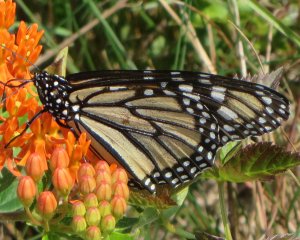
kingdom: Animalia
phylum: Arthropoda
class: Insecta
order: Lepidoptera
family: Nymphalidae
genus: Danaus
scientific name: Danaus plexippus
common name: Monarch
